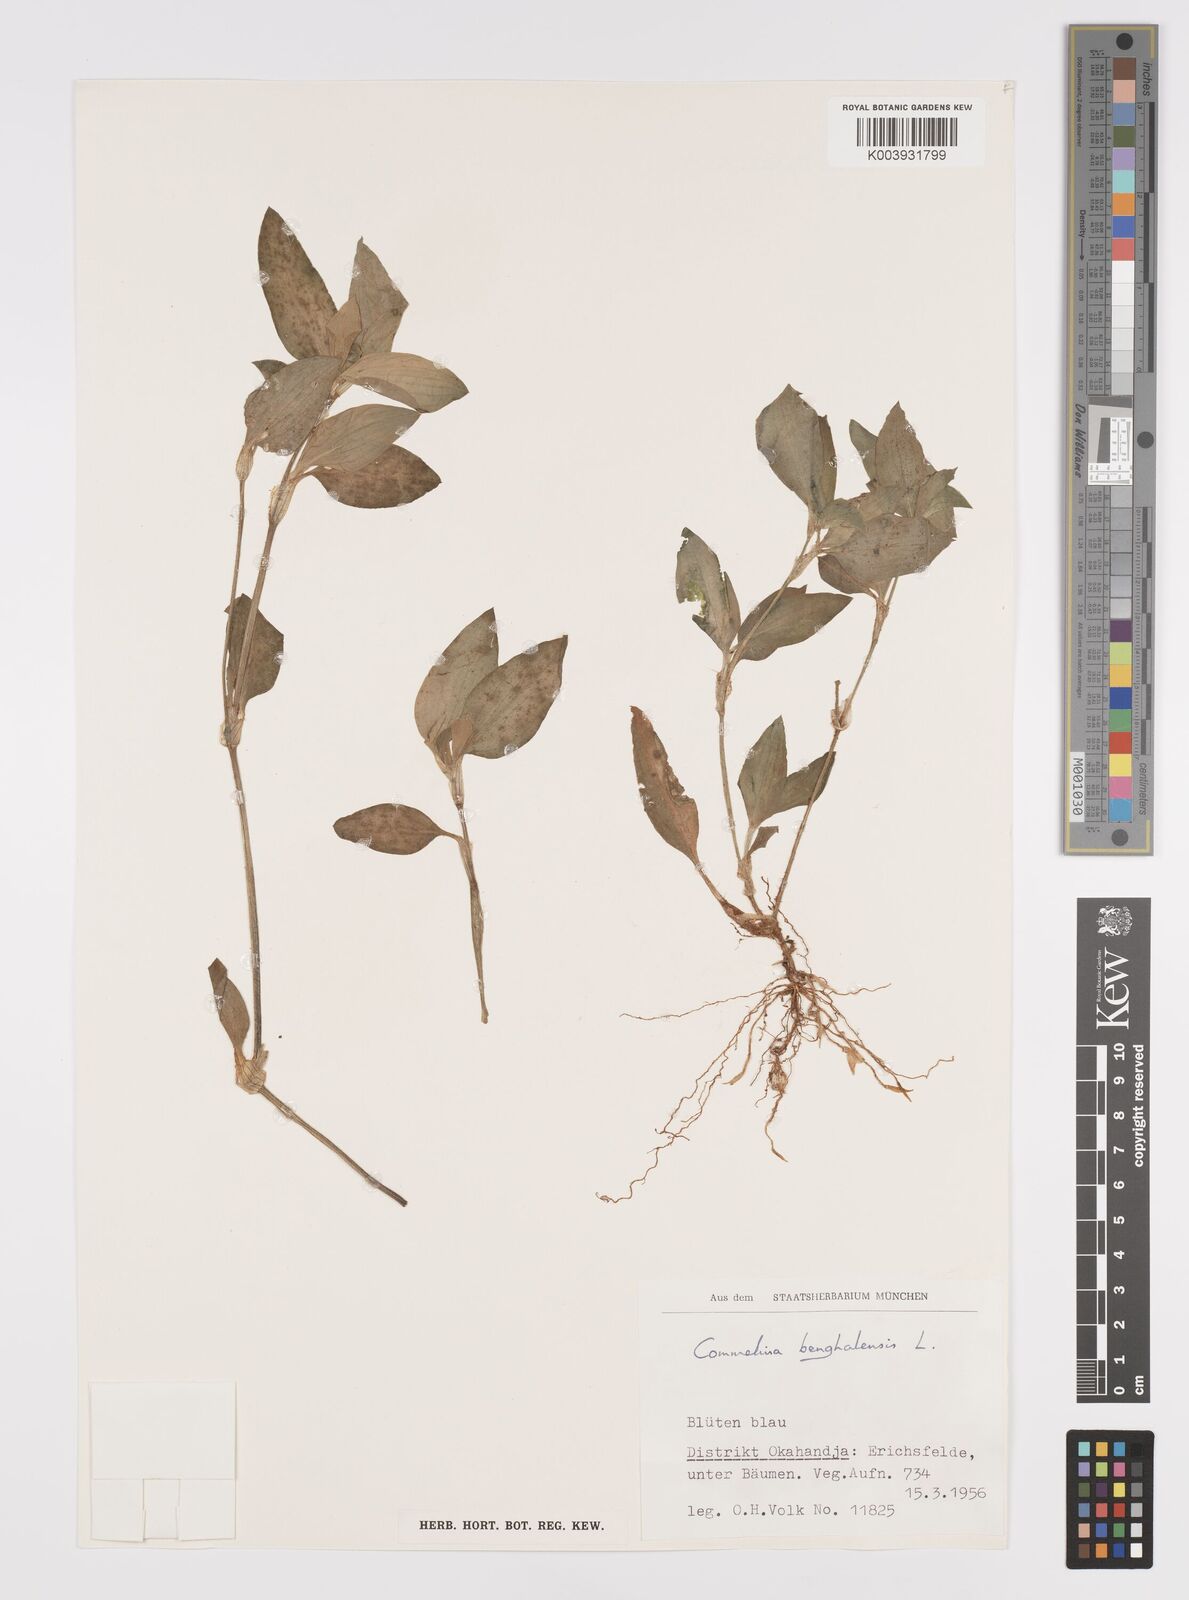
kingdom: Plantae
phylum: Tracheophyta
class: Liliopsida
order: Commelinales
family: Commelinaceae
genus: Commelina
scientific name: Commelina benghalensis
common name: Jio
